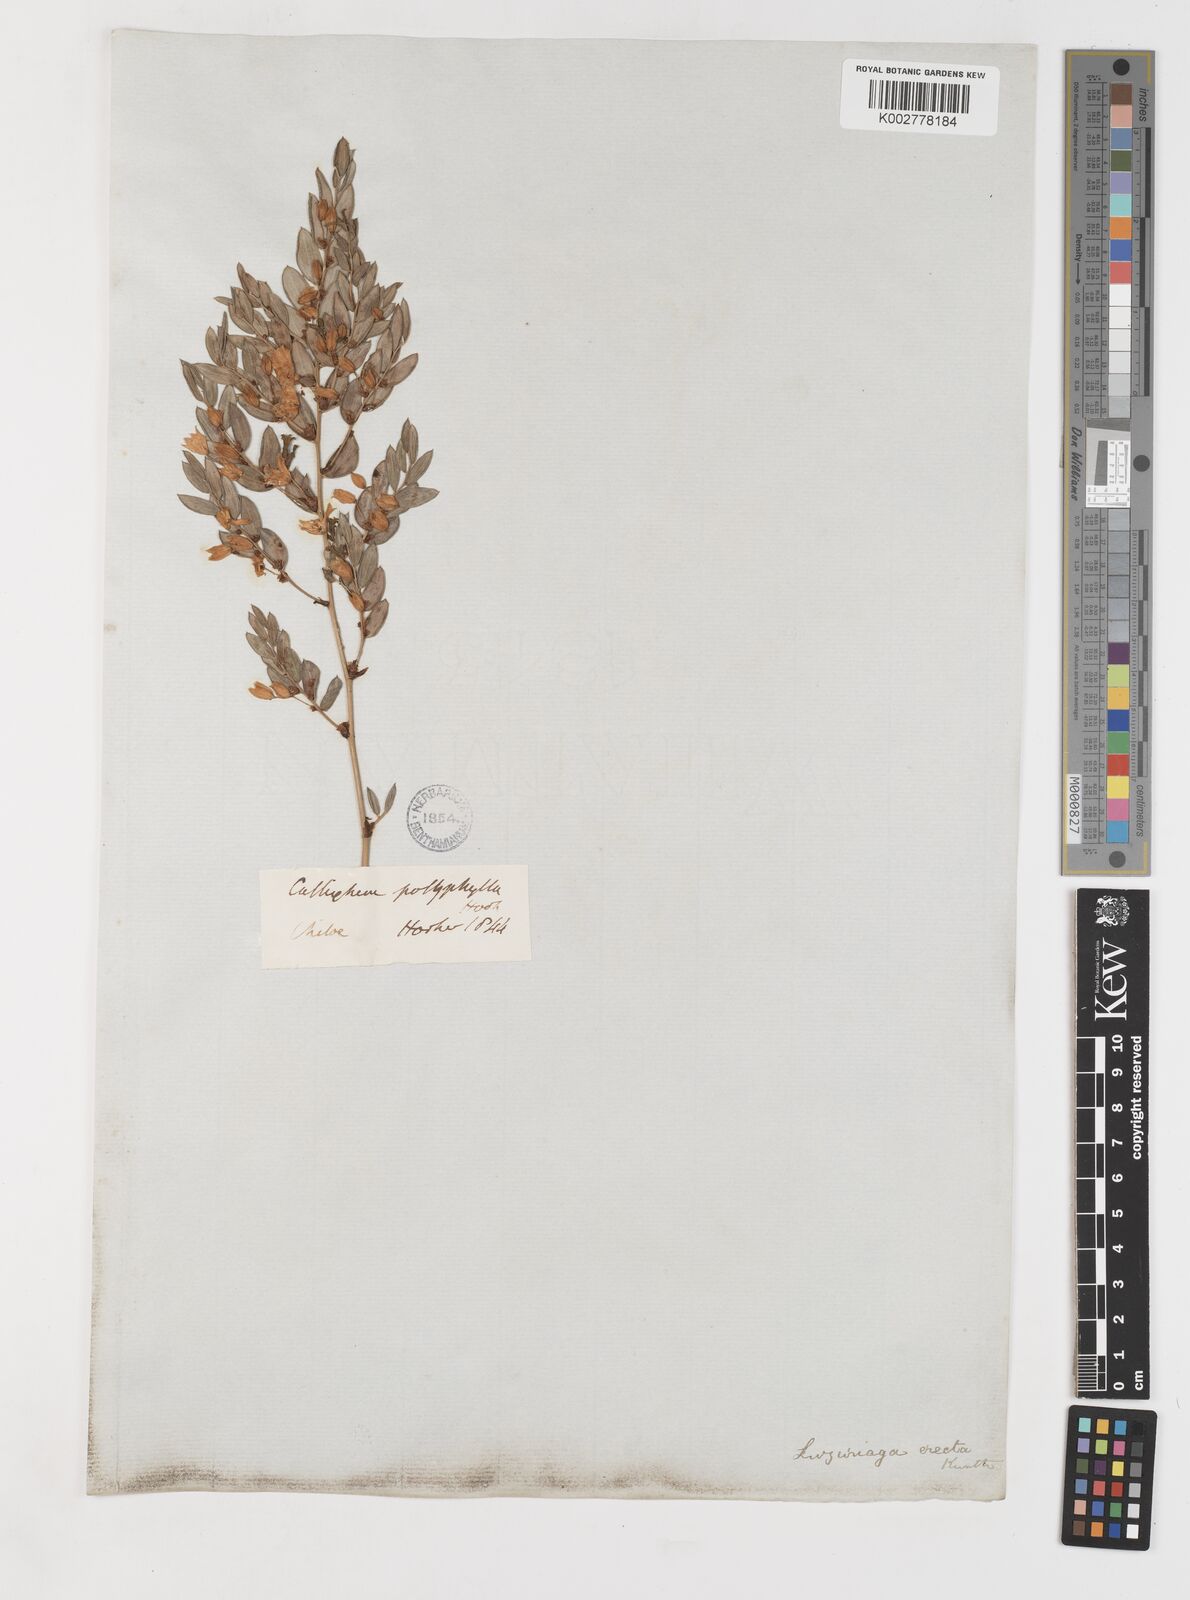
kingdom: Plantae
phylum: Tracheophyta
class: Liliopsida
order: Liliales
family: Alstroemeriaceae
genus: Luzuriaga
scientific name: Luzuriaga polyphylla
